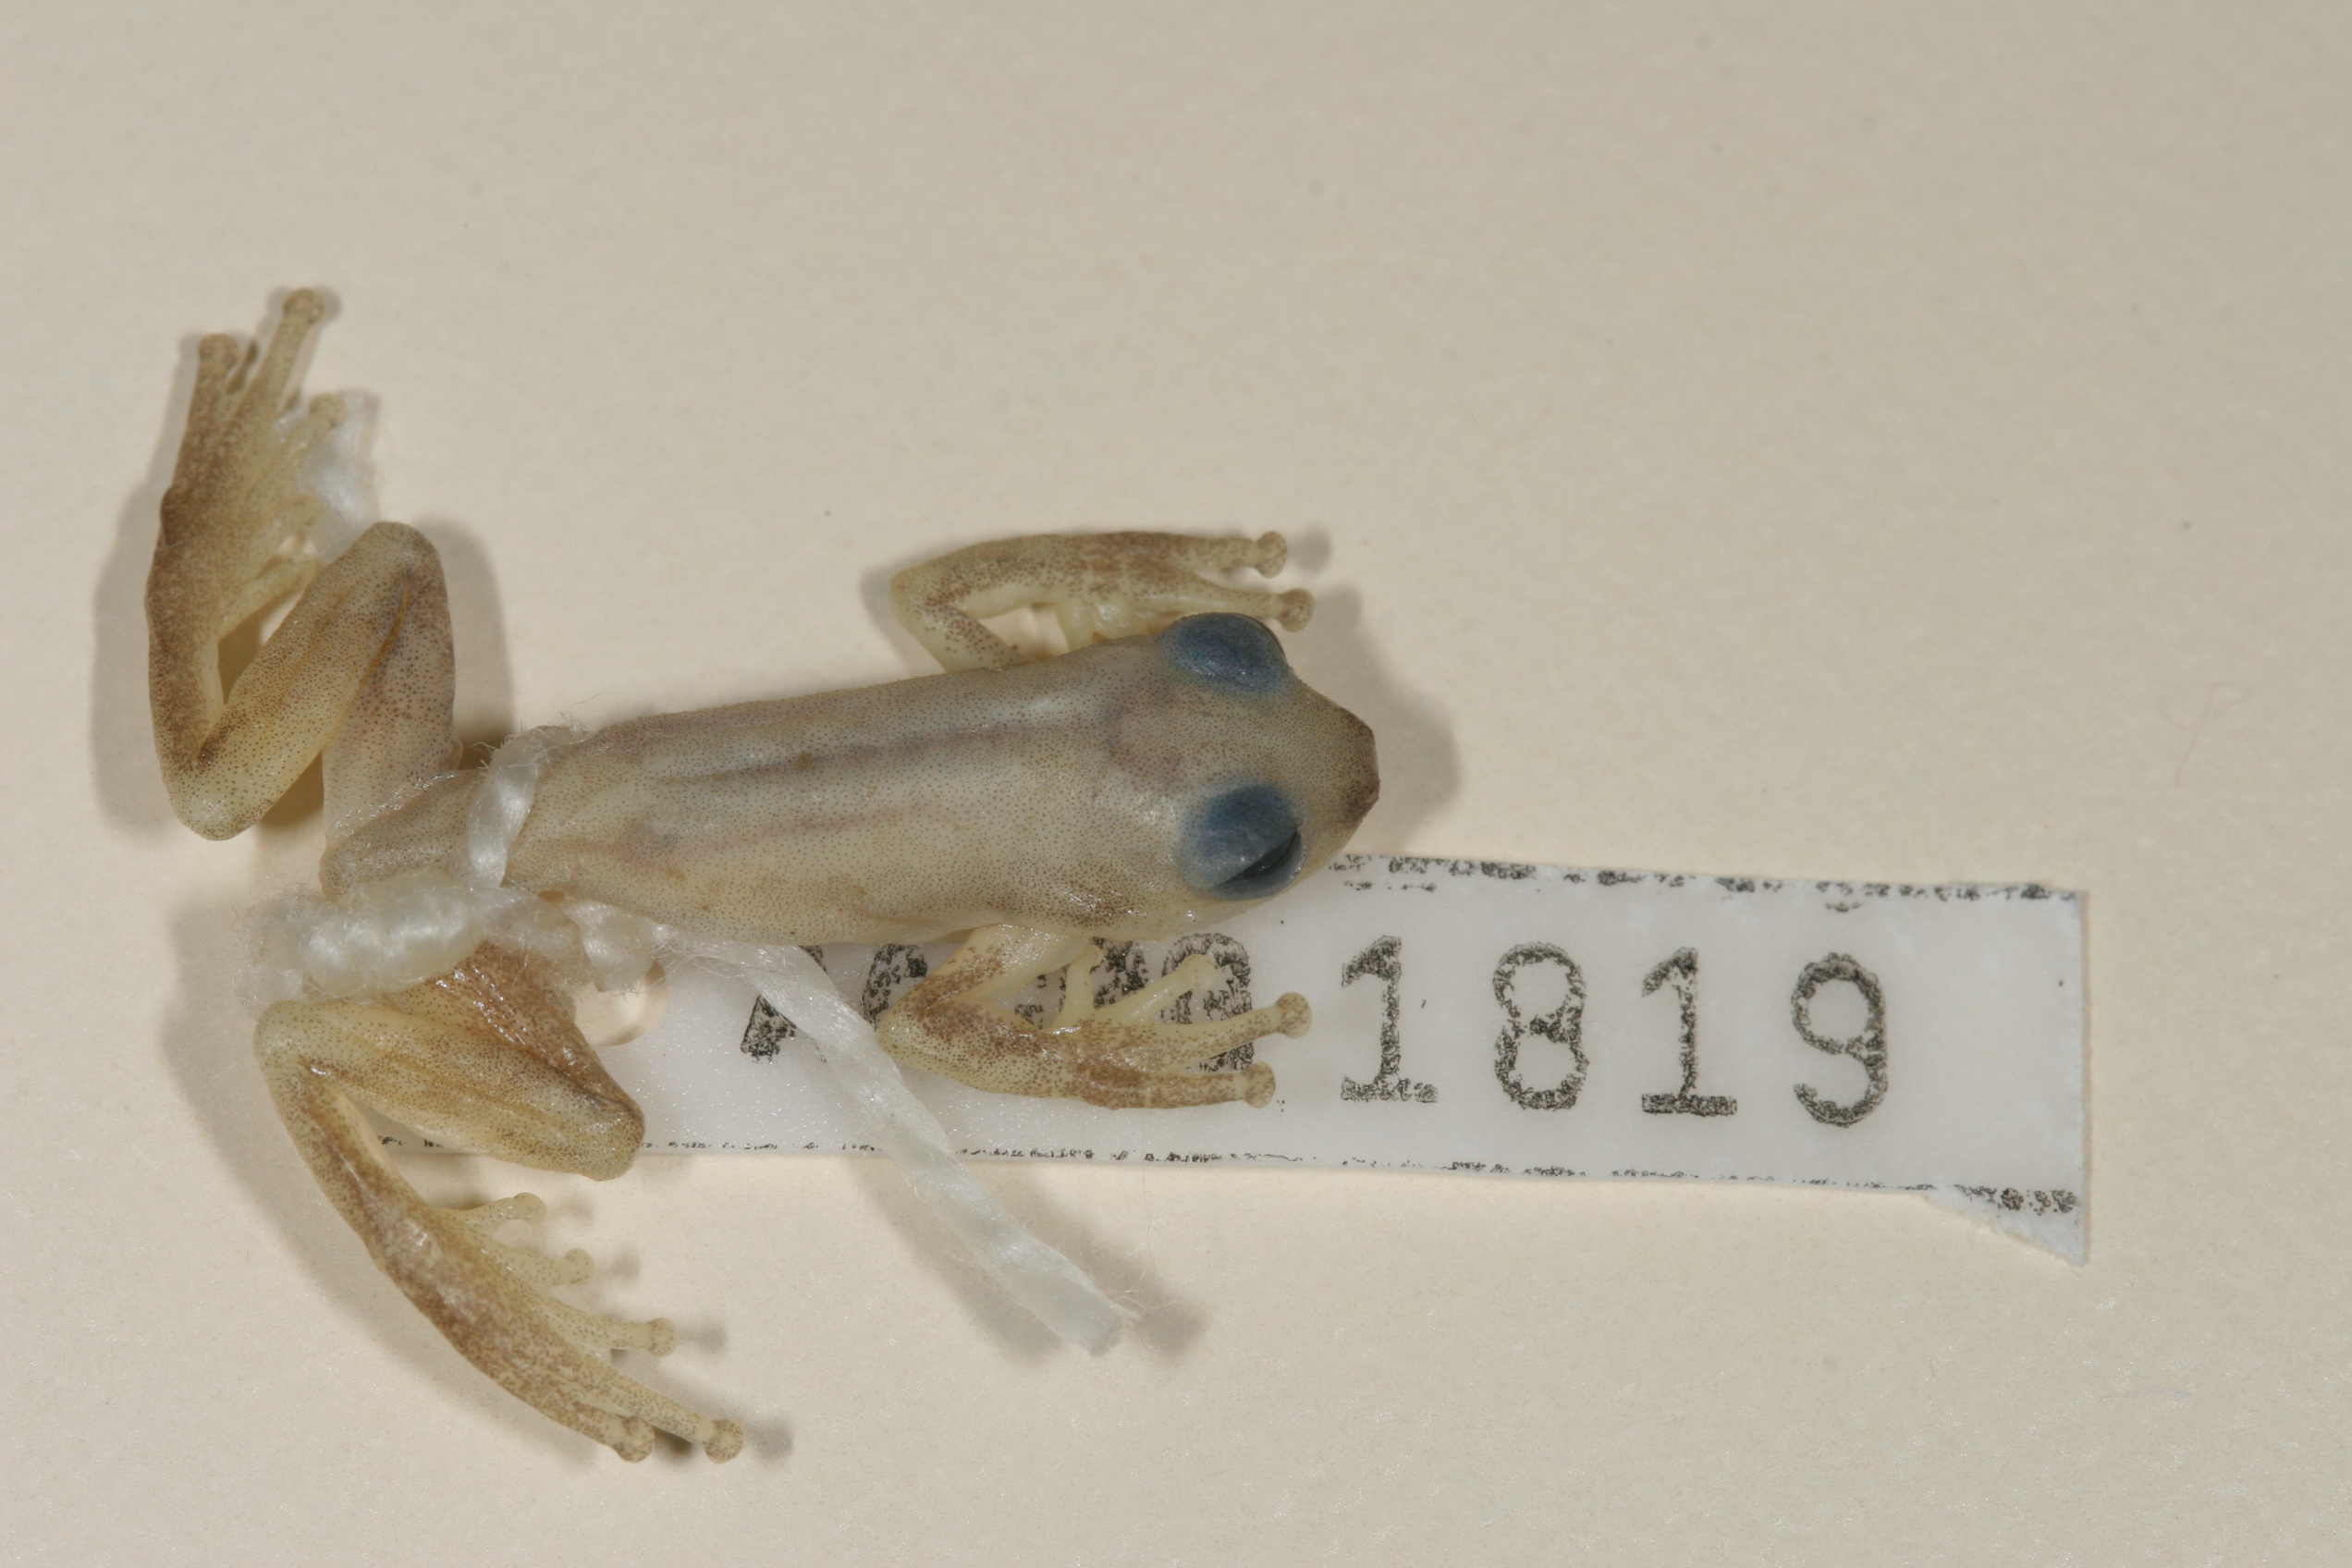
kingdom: Animalia
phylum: Chordata
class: Amphibia
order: Anura
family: Hyperoliidae
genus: Afrixalus
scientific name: Afrixalus delicatus
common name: Delicate leaf-folding frog
